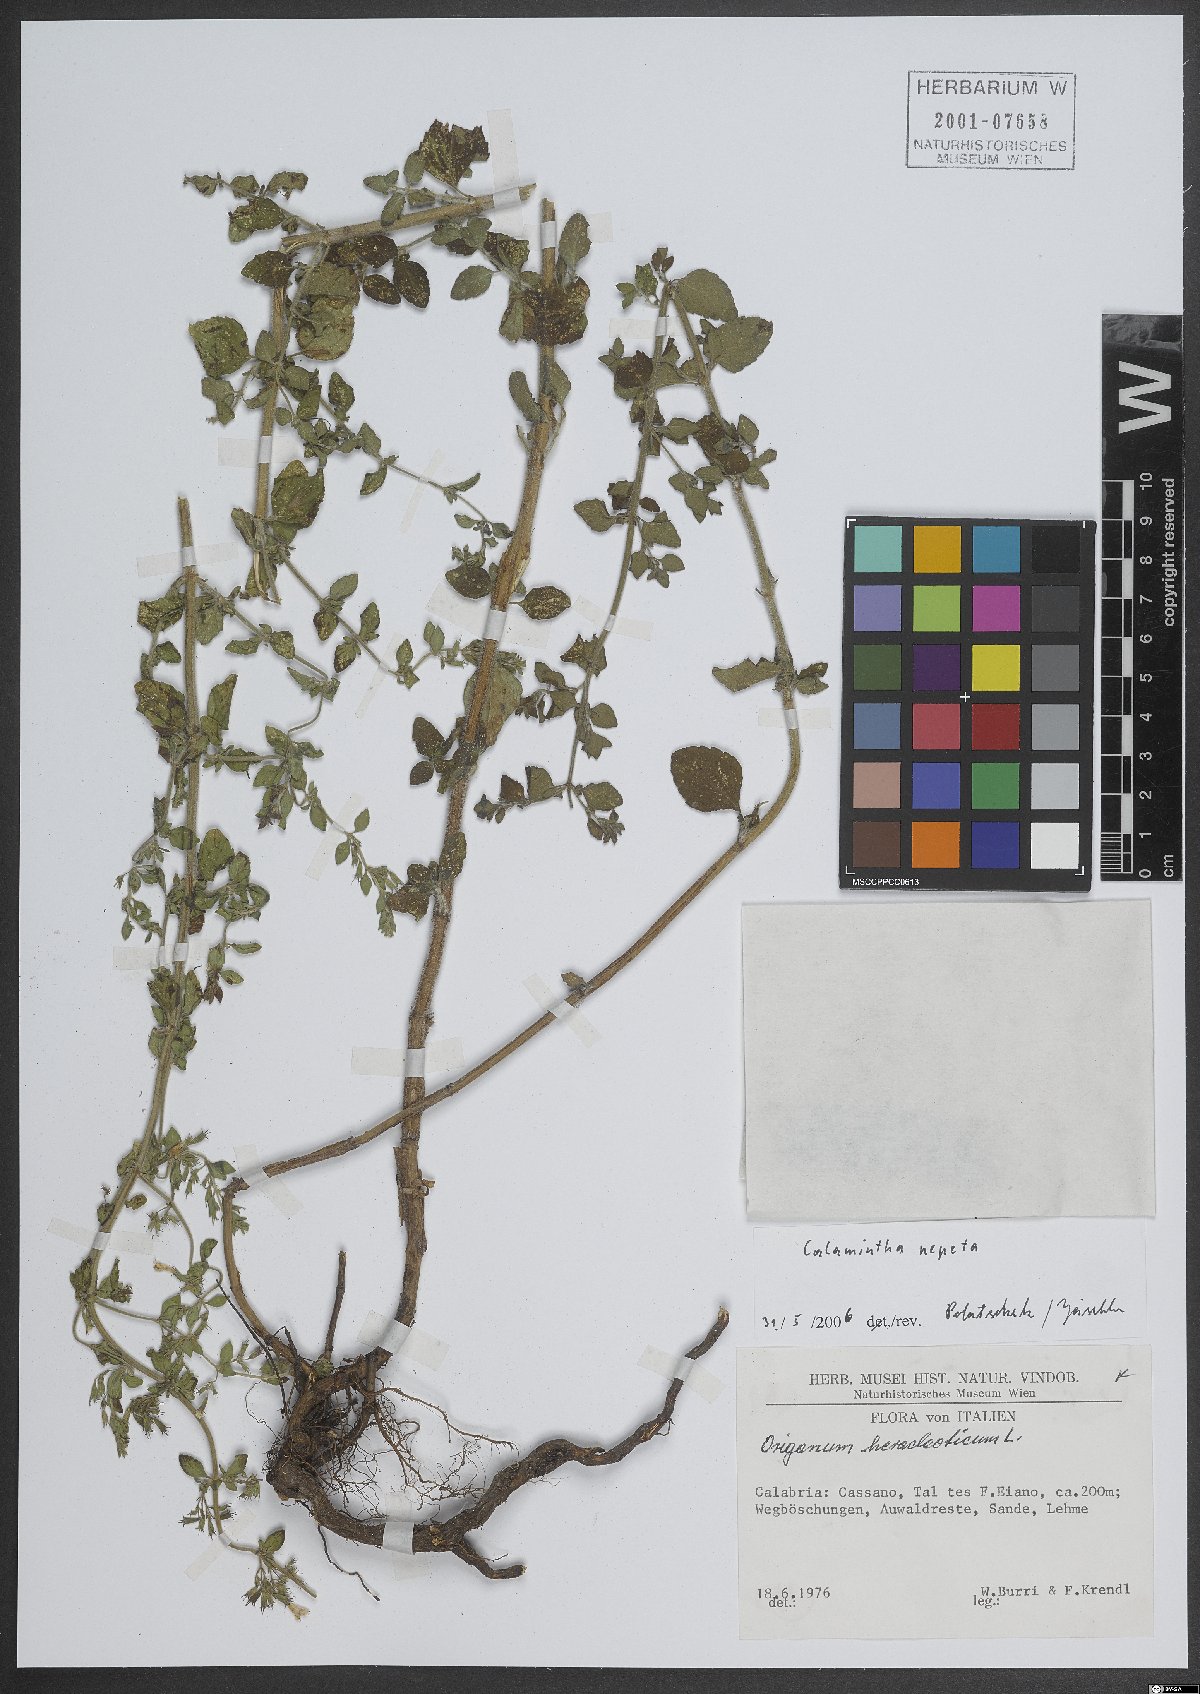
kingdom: Plantae
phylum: Tracheophyta
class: Magnoliopsida
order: Lamiales
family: Lamiaceae
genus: Clinopodium
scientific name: Clinopodium nepeta
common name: Lesser calamint
